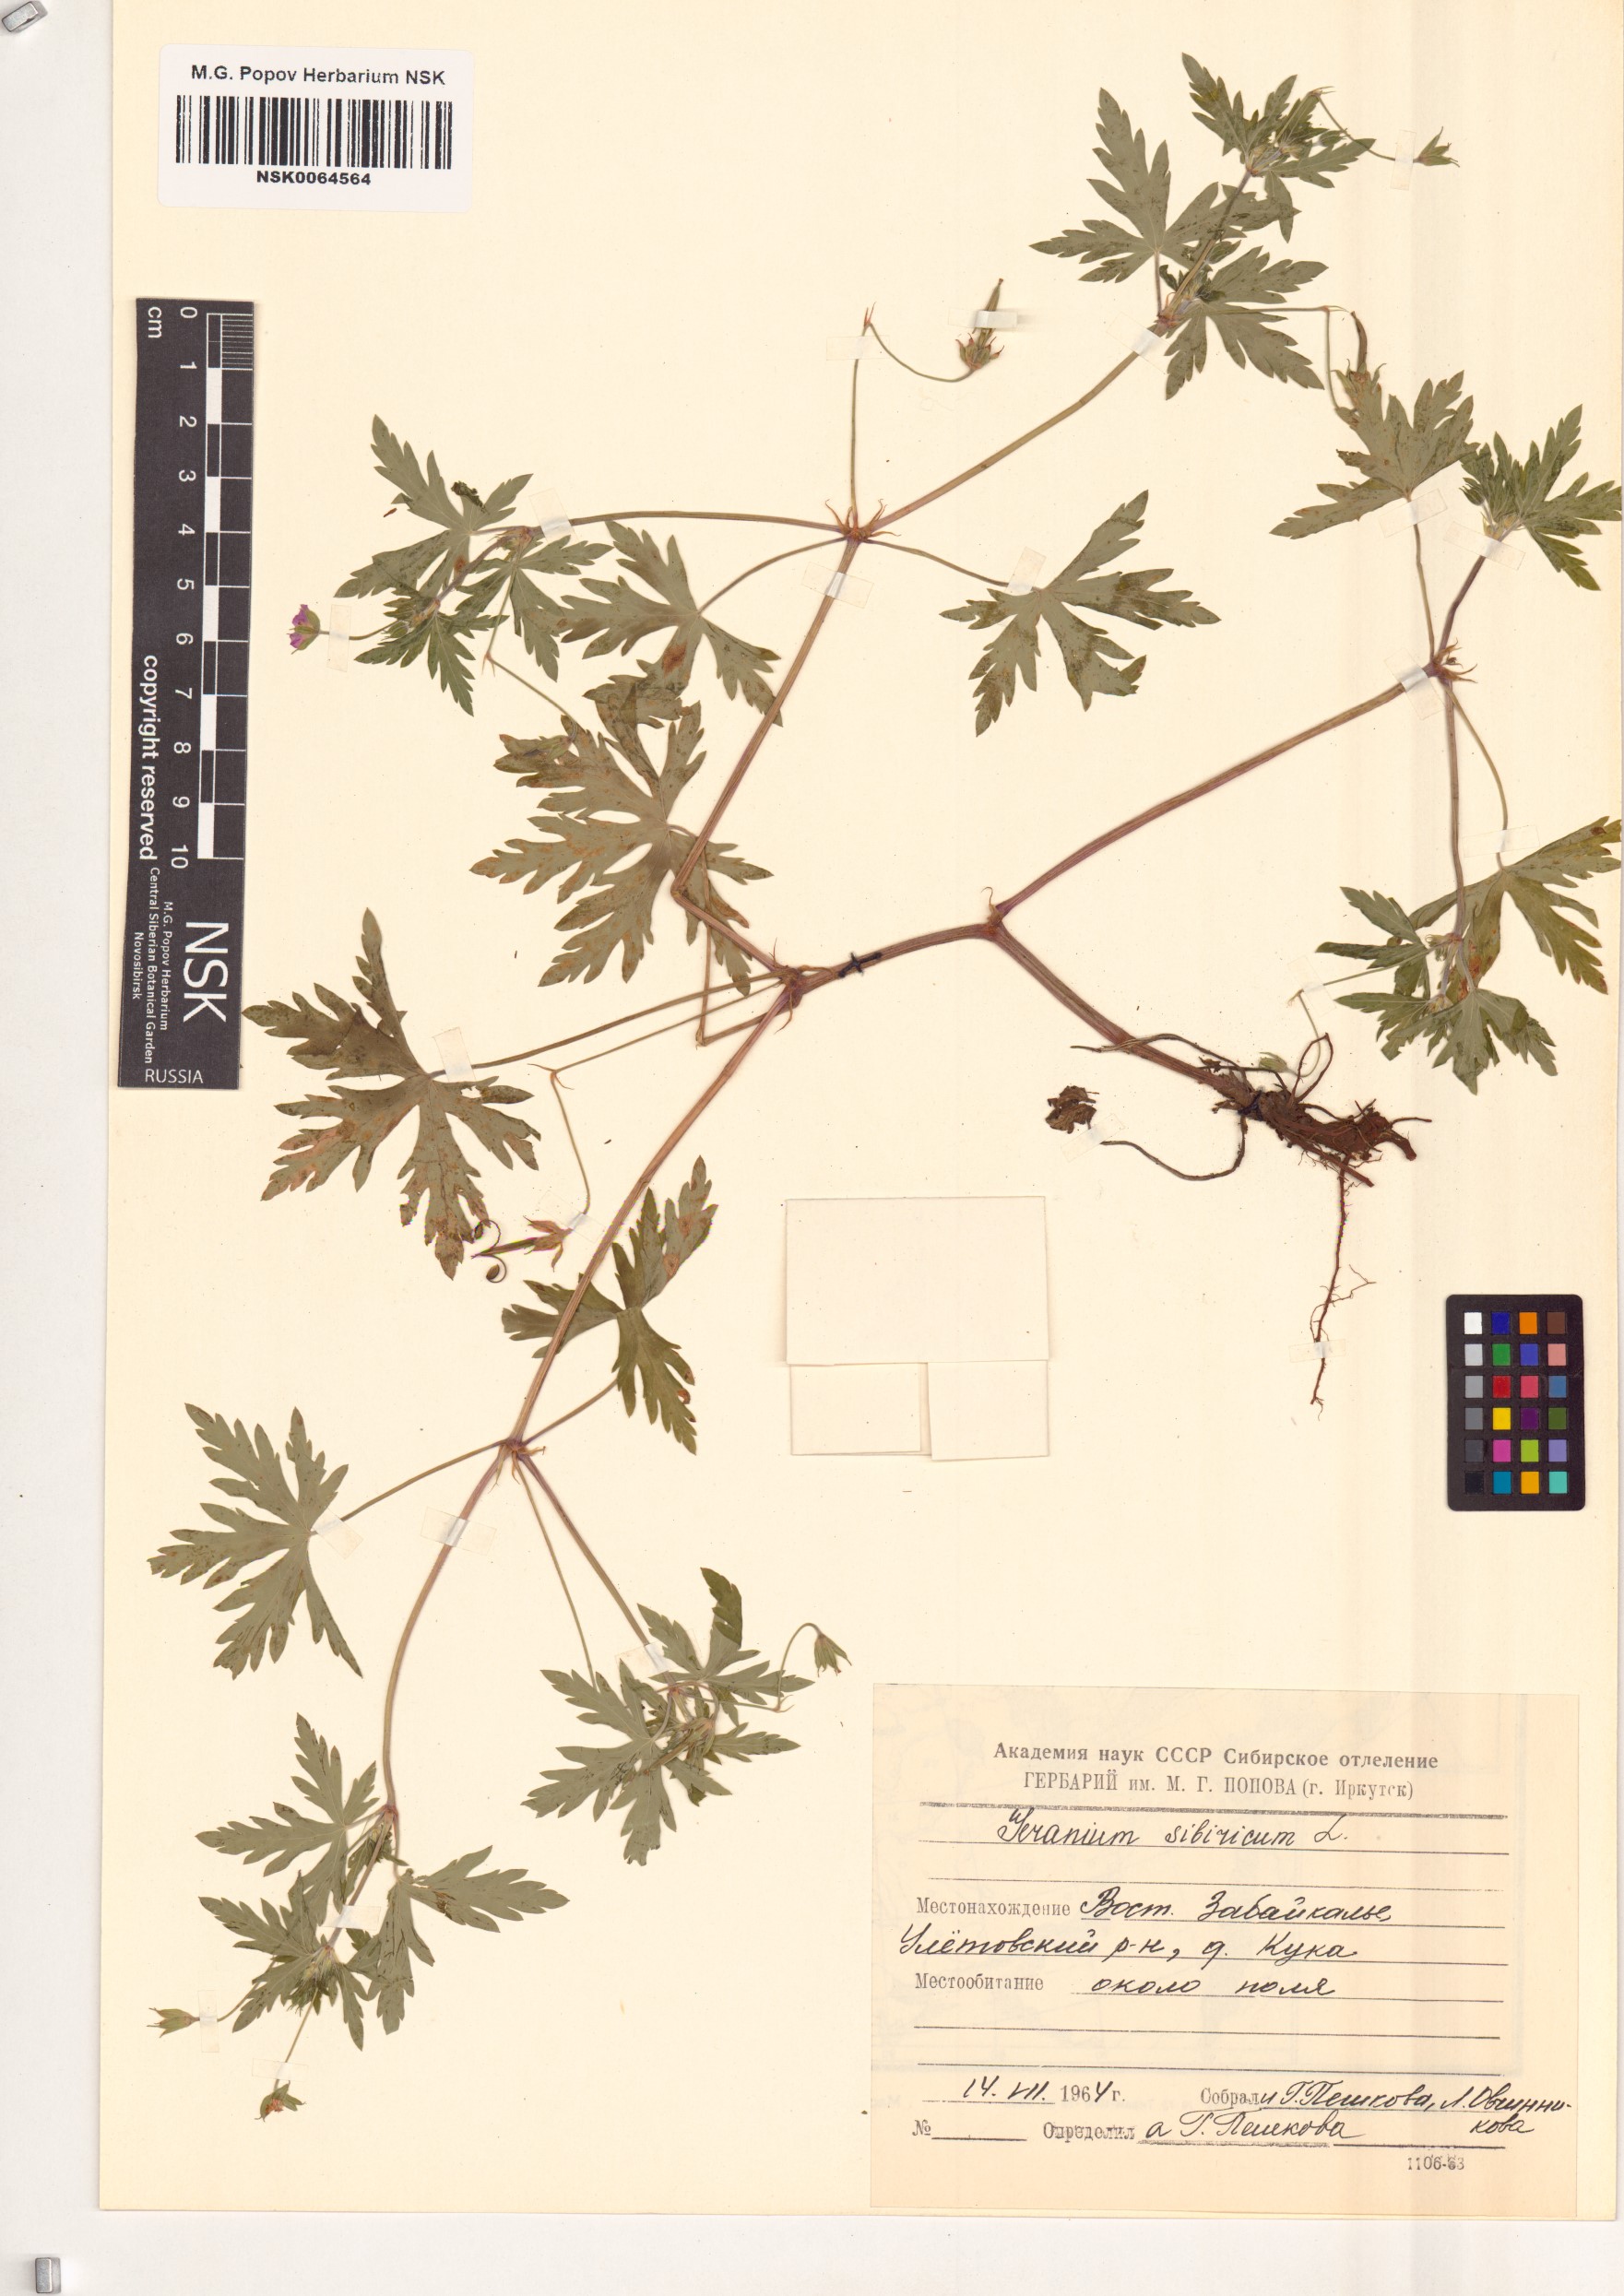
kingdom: Plantae
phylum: Tracheophyta
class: Magnoliopsida
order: Geraniales
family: Geraniaceae
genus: Geranium
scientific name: Geranium sibiricum
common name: Siberian crane's-bill
